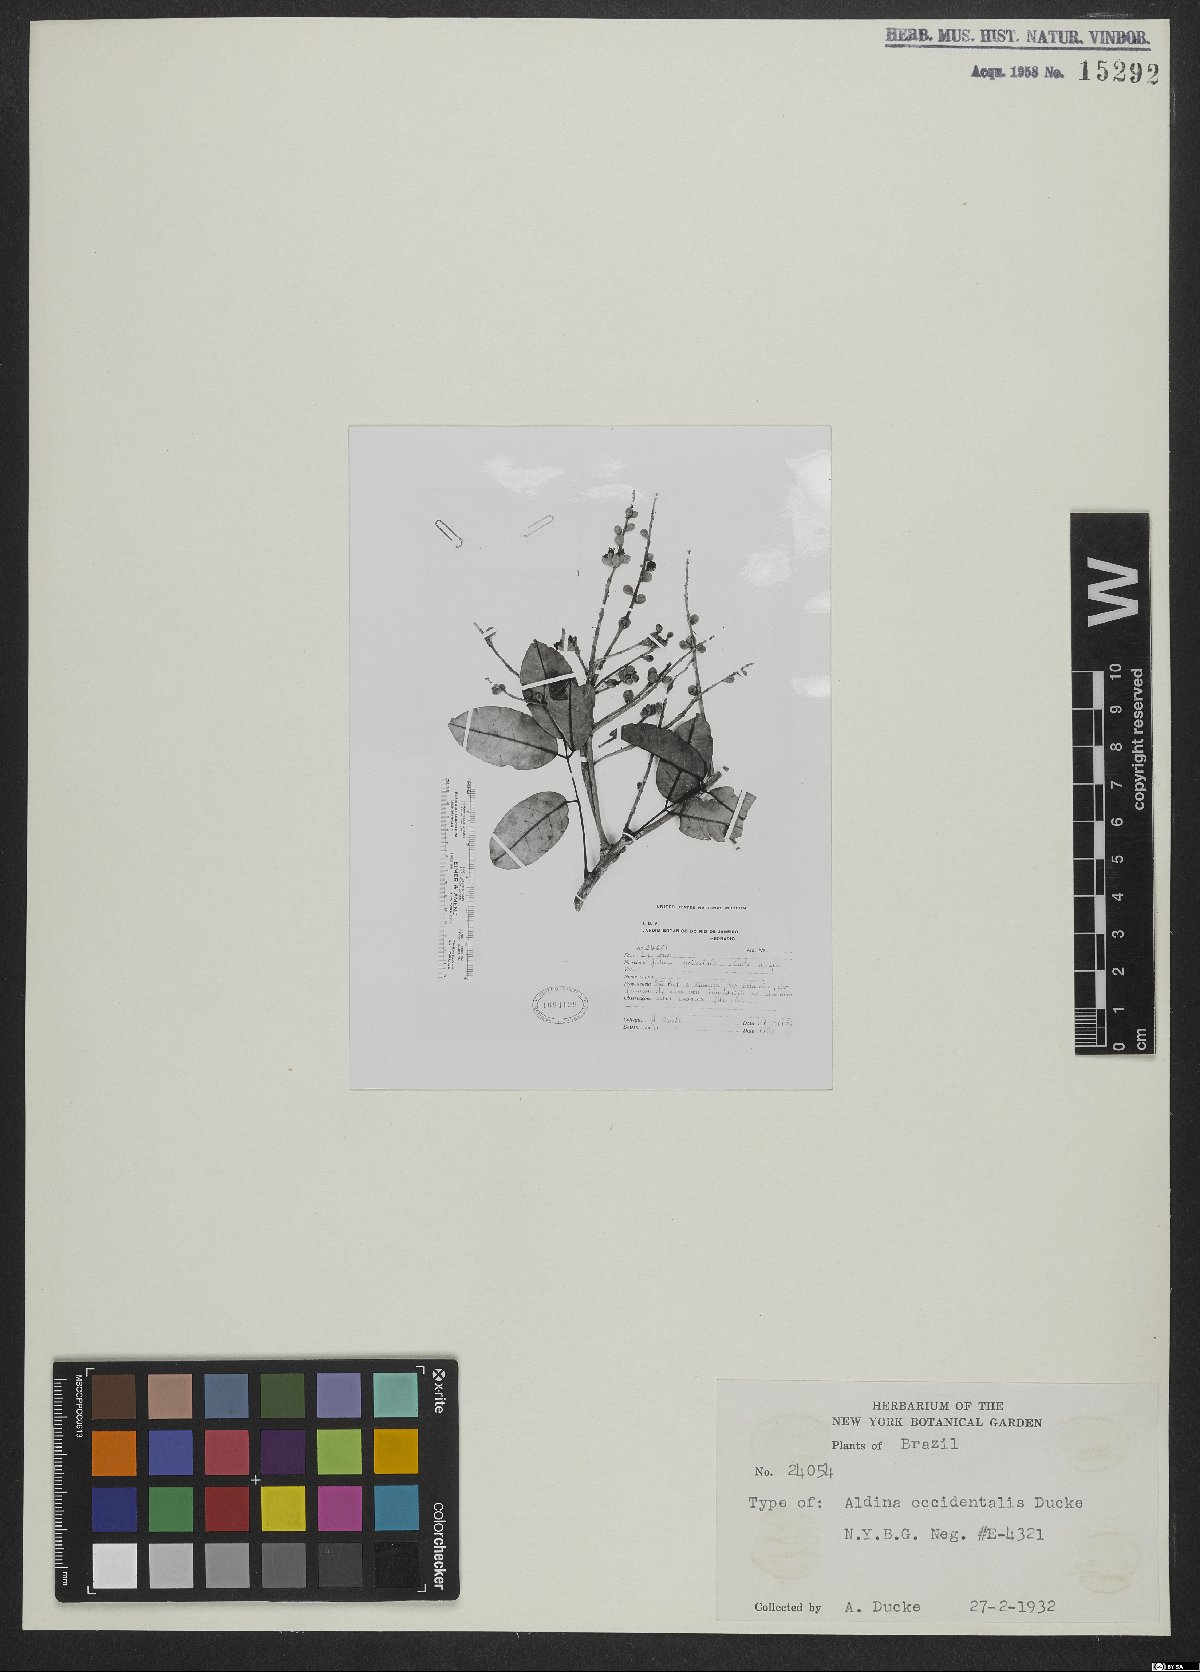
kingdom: Plantae
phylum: Tracheophyta
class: Magnoliopsida
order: Fabales
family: Fabaceae
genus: Aldina
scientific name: Aldina occidentalis
